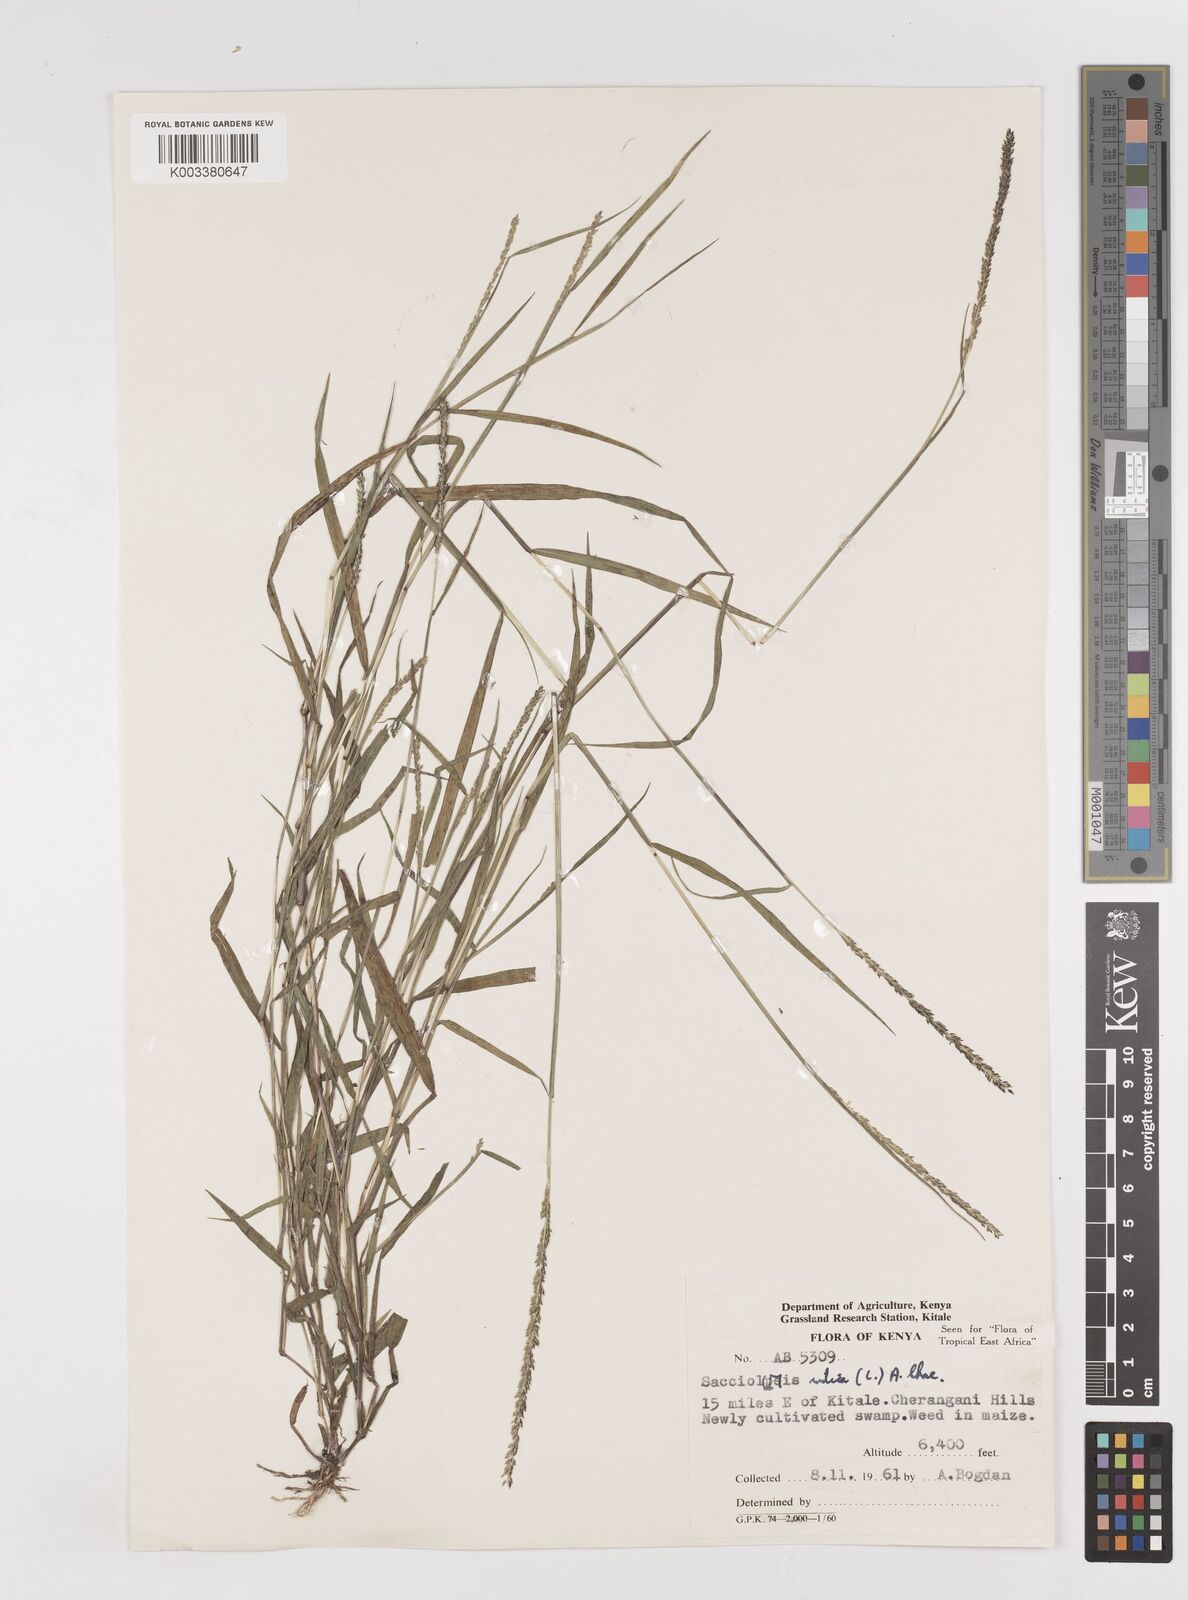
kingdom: Plantae
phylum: Tracheophyta
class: Liliopsida
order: Poales
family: Poaceae
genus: Sacciolepis
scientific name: Sacciolepis indica
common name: Glenwoodgrass
